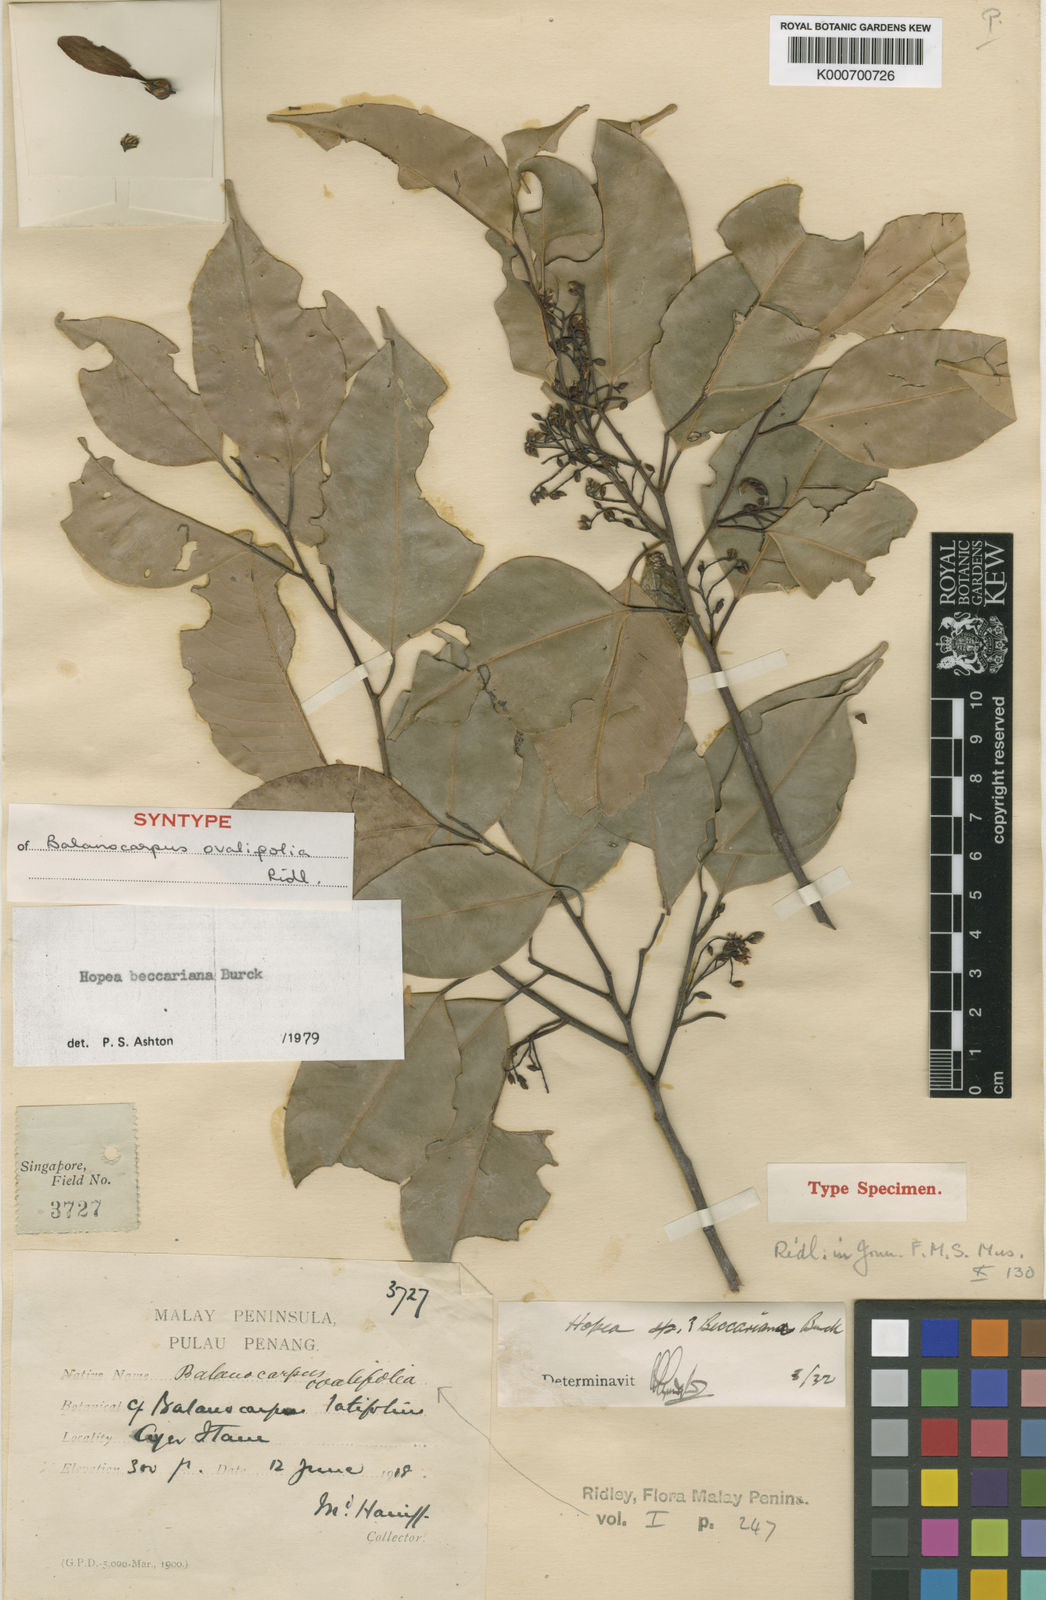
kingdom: Plantae
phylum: Tracheophyta
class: Magnoliopsida
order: Malvales
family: Dipterocarpaceae
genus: Hopea
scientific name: Hopea beccariana
